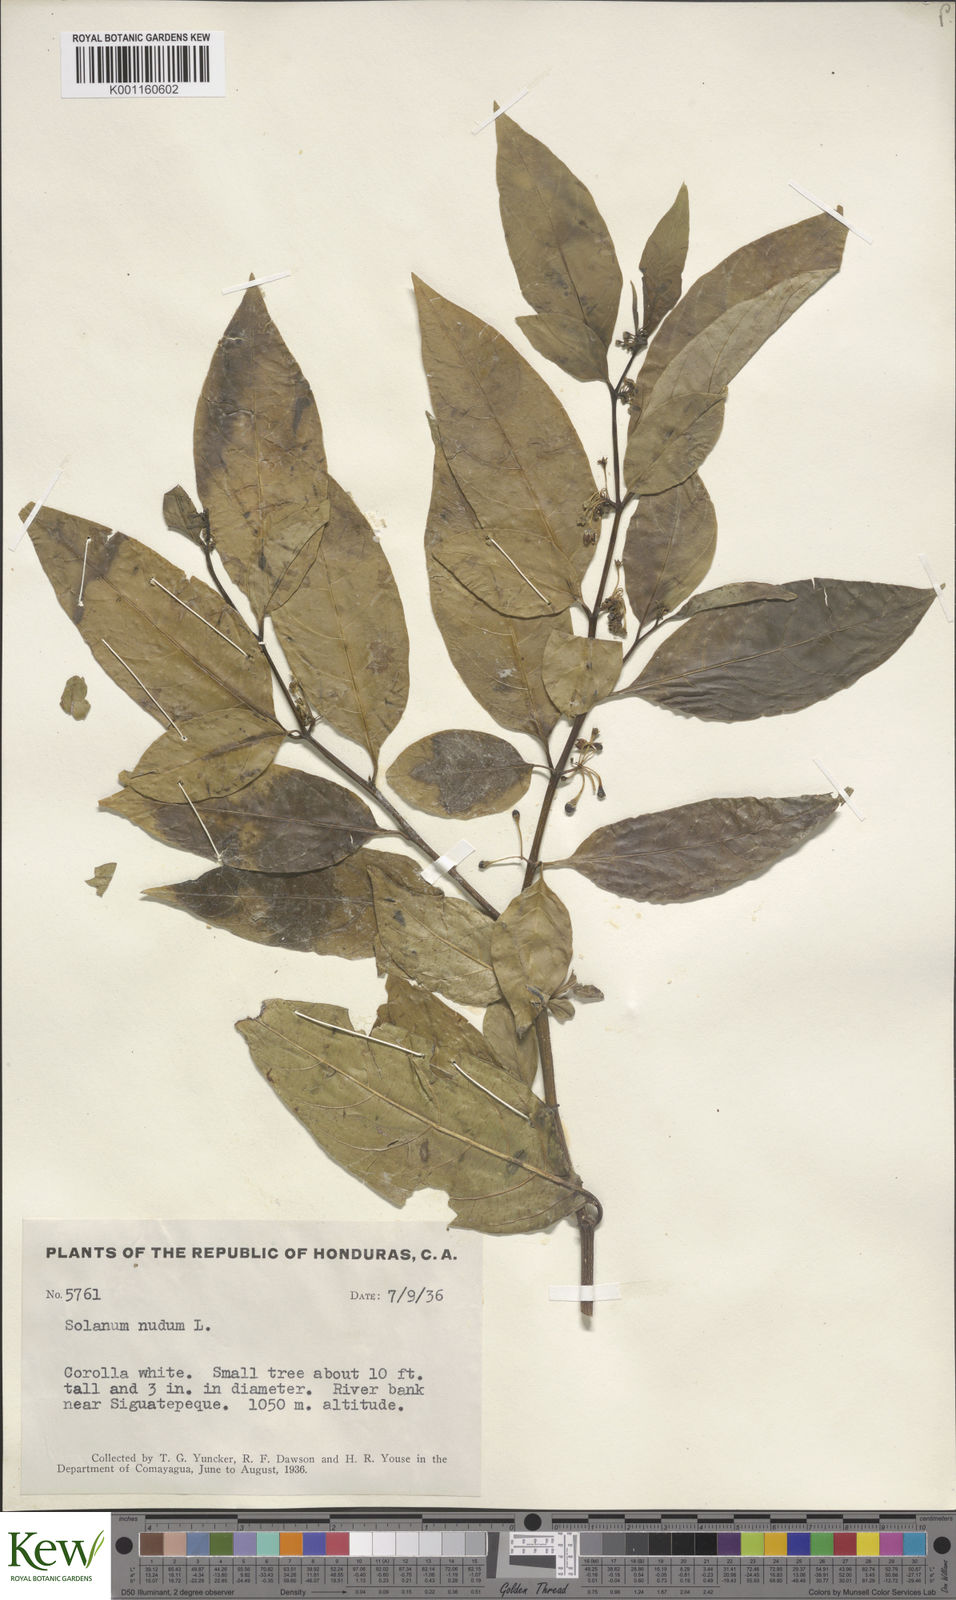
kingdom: Plantae
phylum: Tracheophyta
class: Magnoliopsida
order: Solanales
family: Solanaceae
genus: Solanum
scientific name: Solanum nudum
